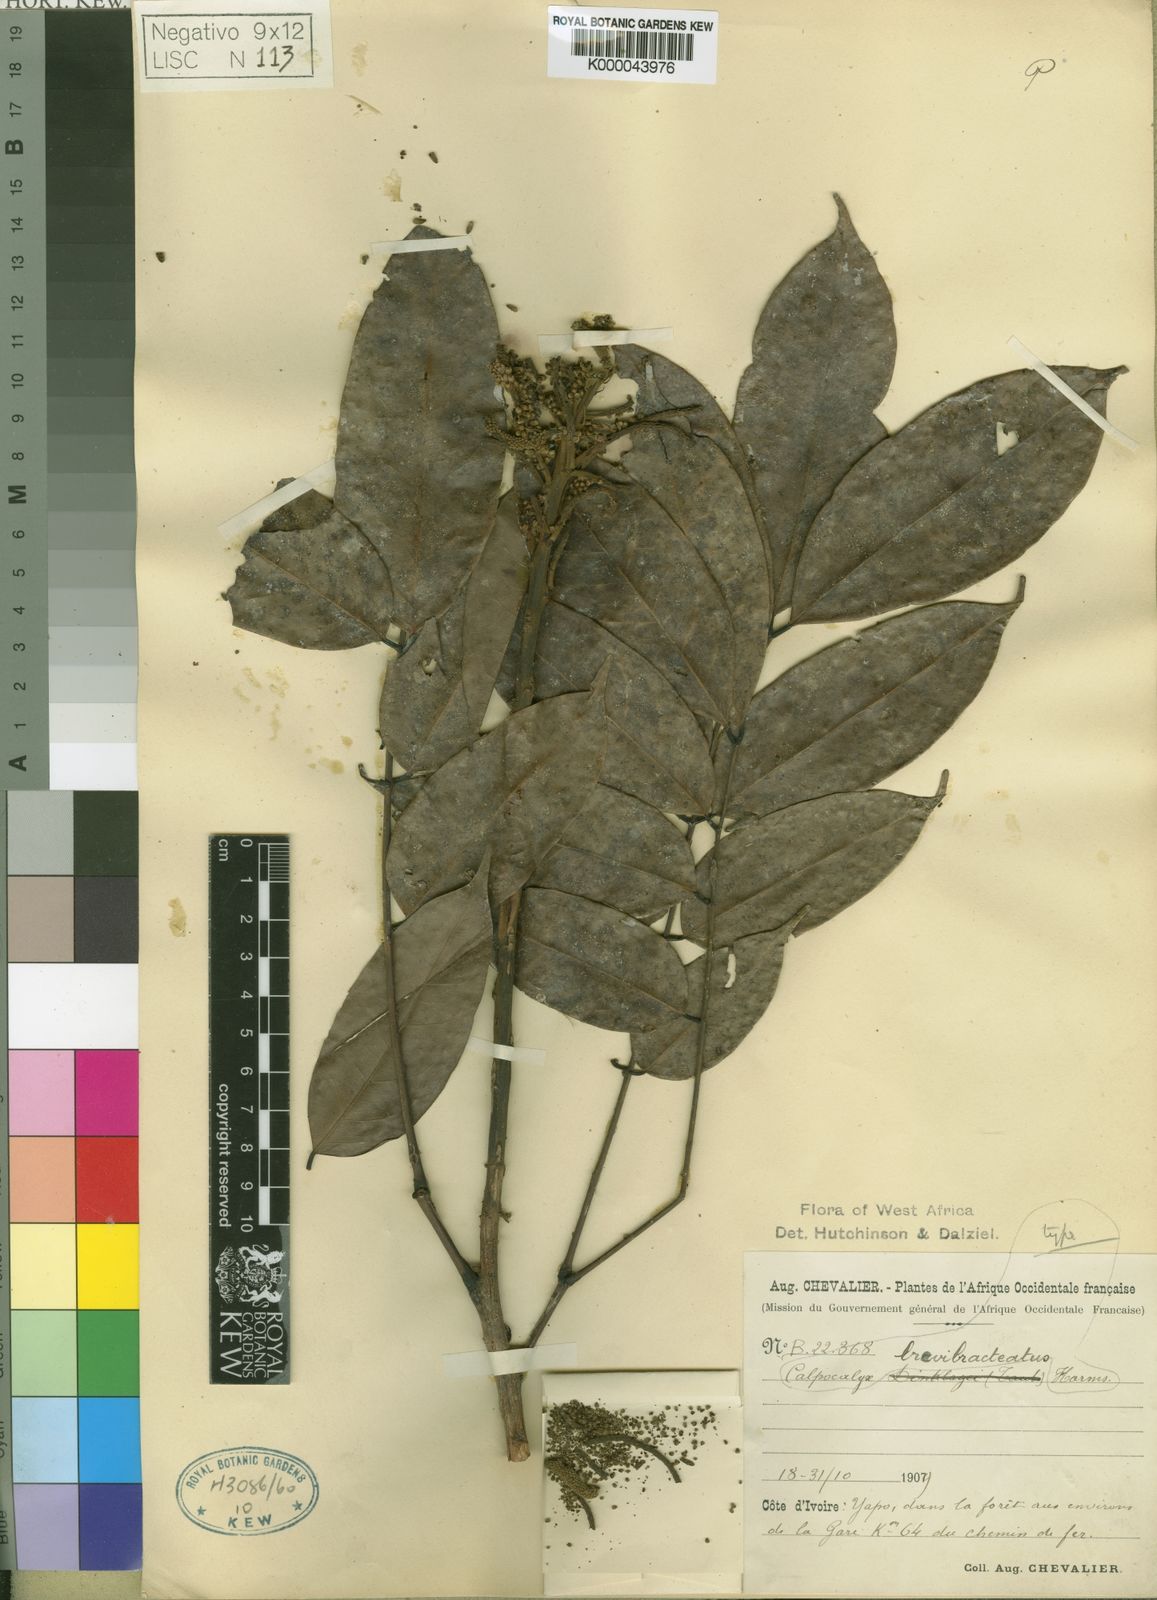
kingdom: Plantae
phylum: Tracheophyta
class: Magnoliopsida
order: Fabales
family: Fabaceae
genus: Calpocalyx
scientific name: Calpocalyx brevibracteatus
